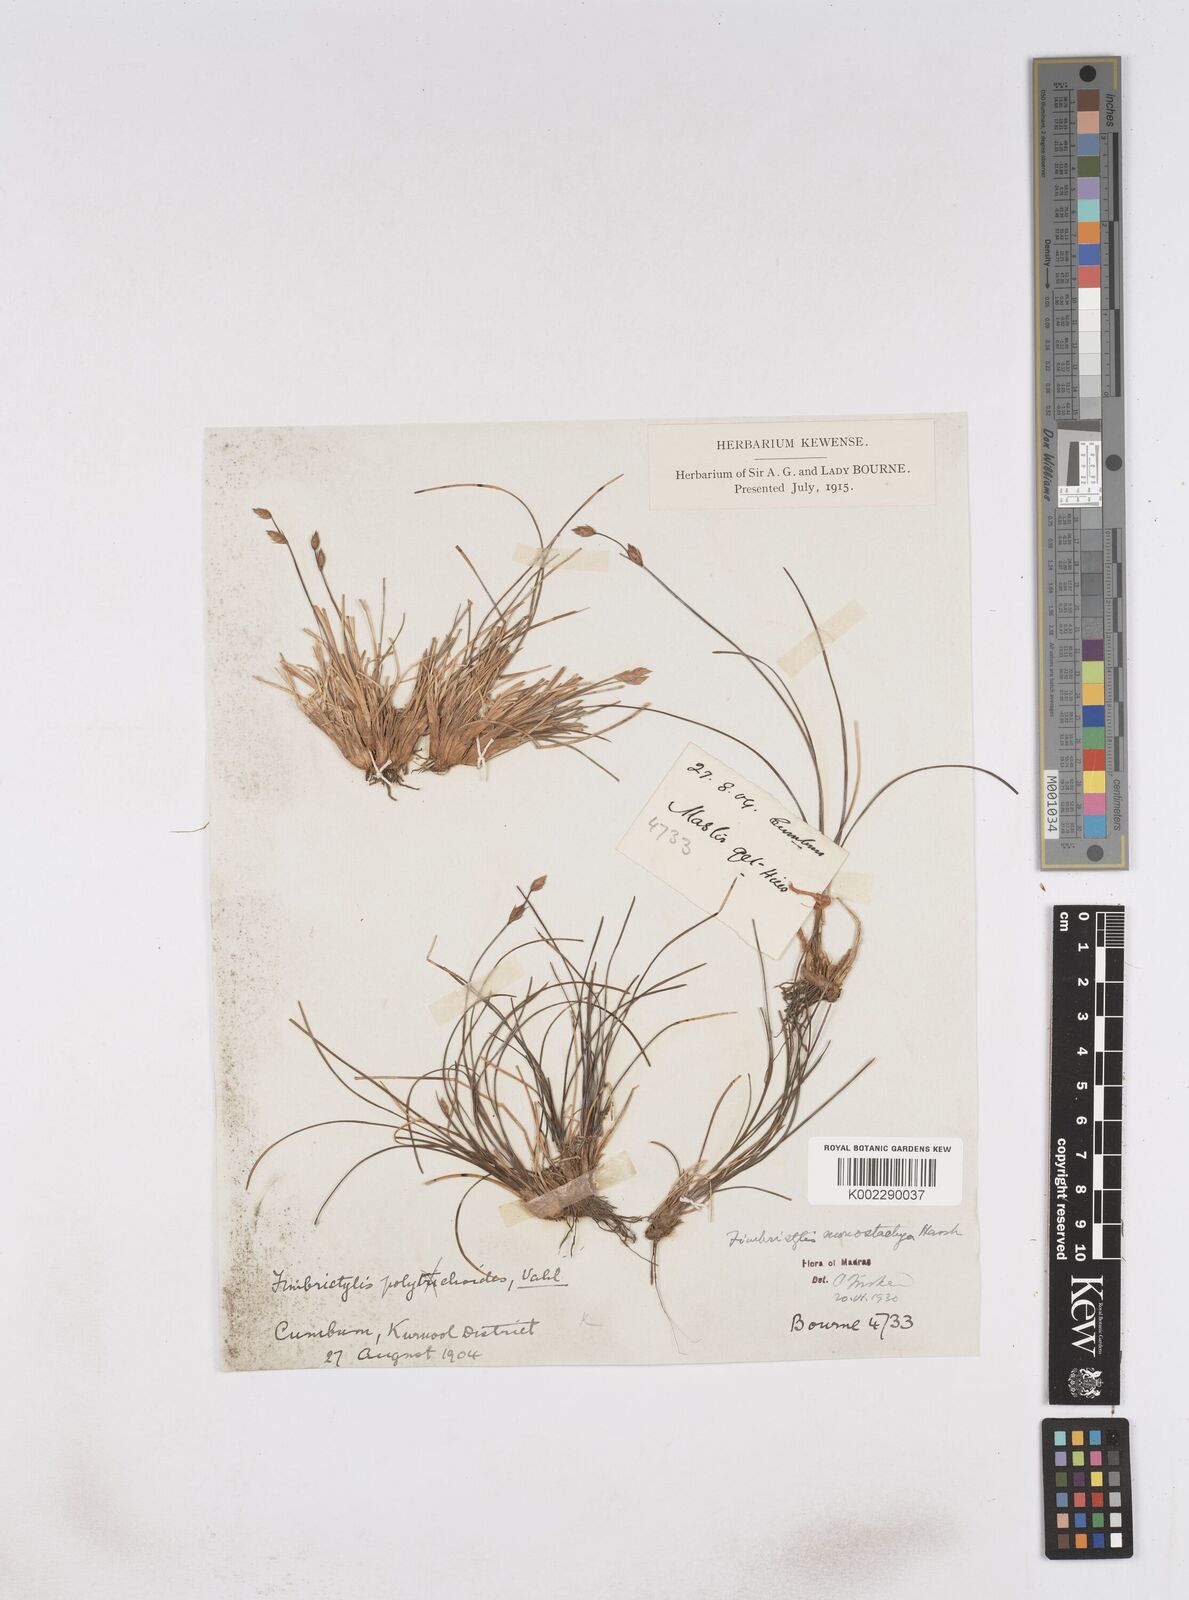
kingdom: Plantae
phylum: Tracheophyta
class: Liliopsida
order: Poales
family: Cyperaceae
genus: Abildgaardia
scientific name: Abildgaardia ovata
